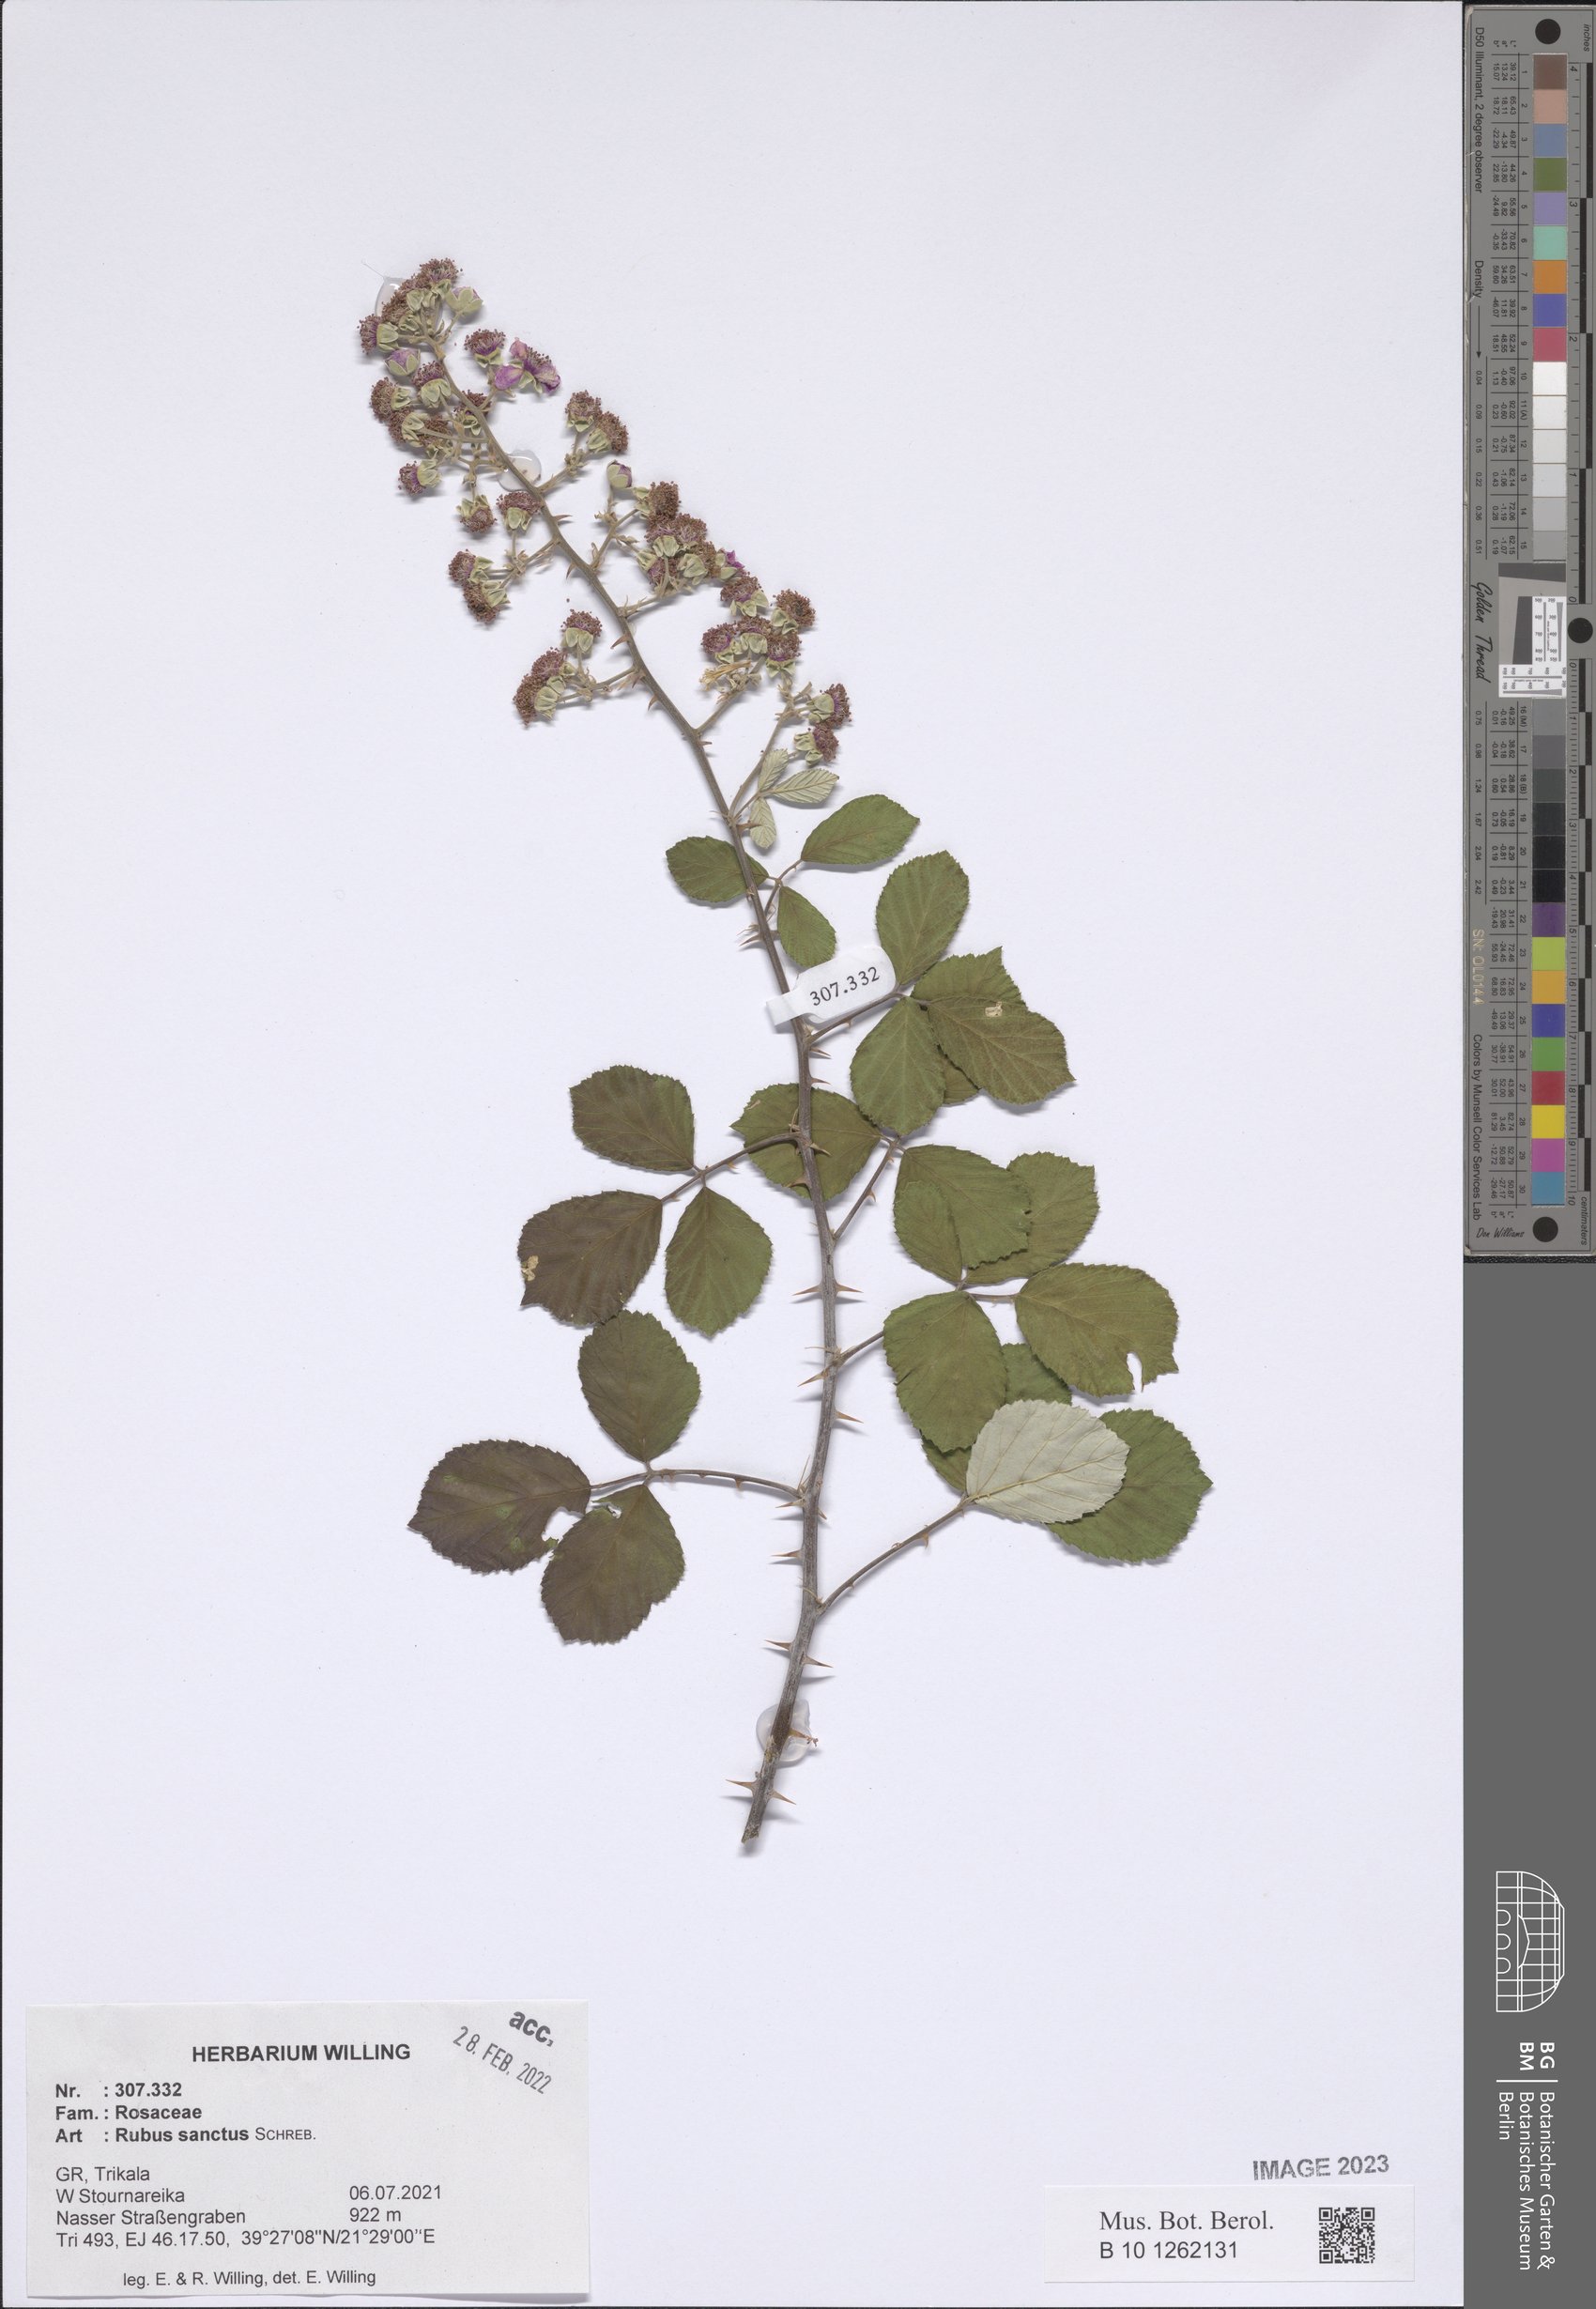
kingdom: Plantae
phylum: Tracheophyta
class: Magnoliopsida
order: Rosales
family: Rosaceae
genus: Rubus
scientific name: Rubus sanctus
